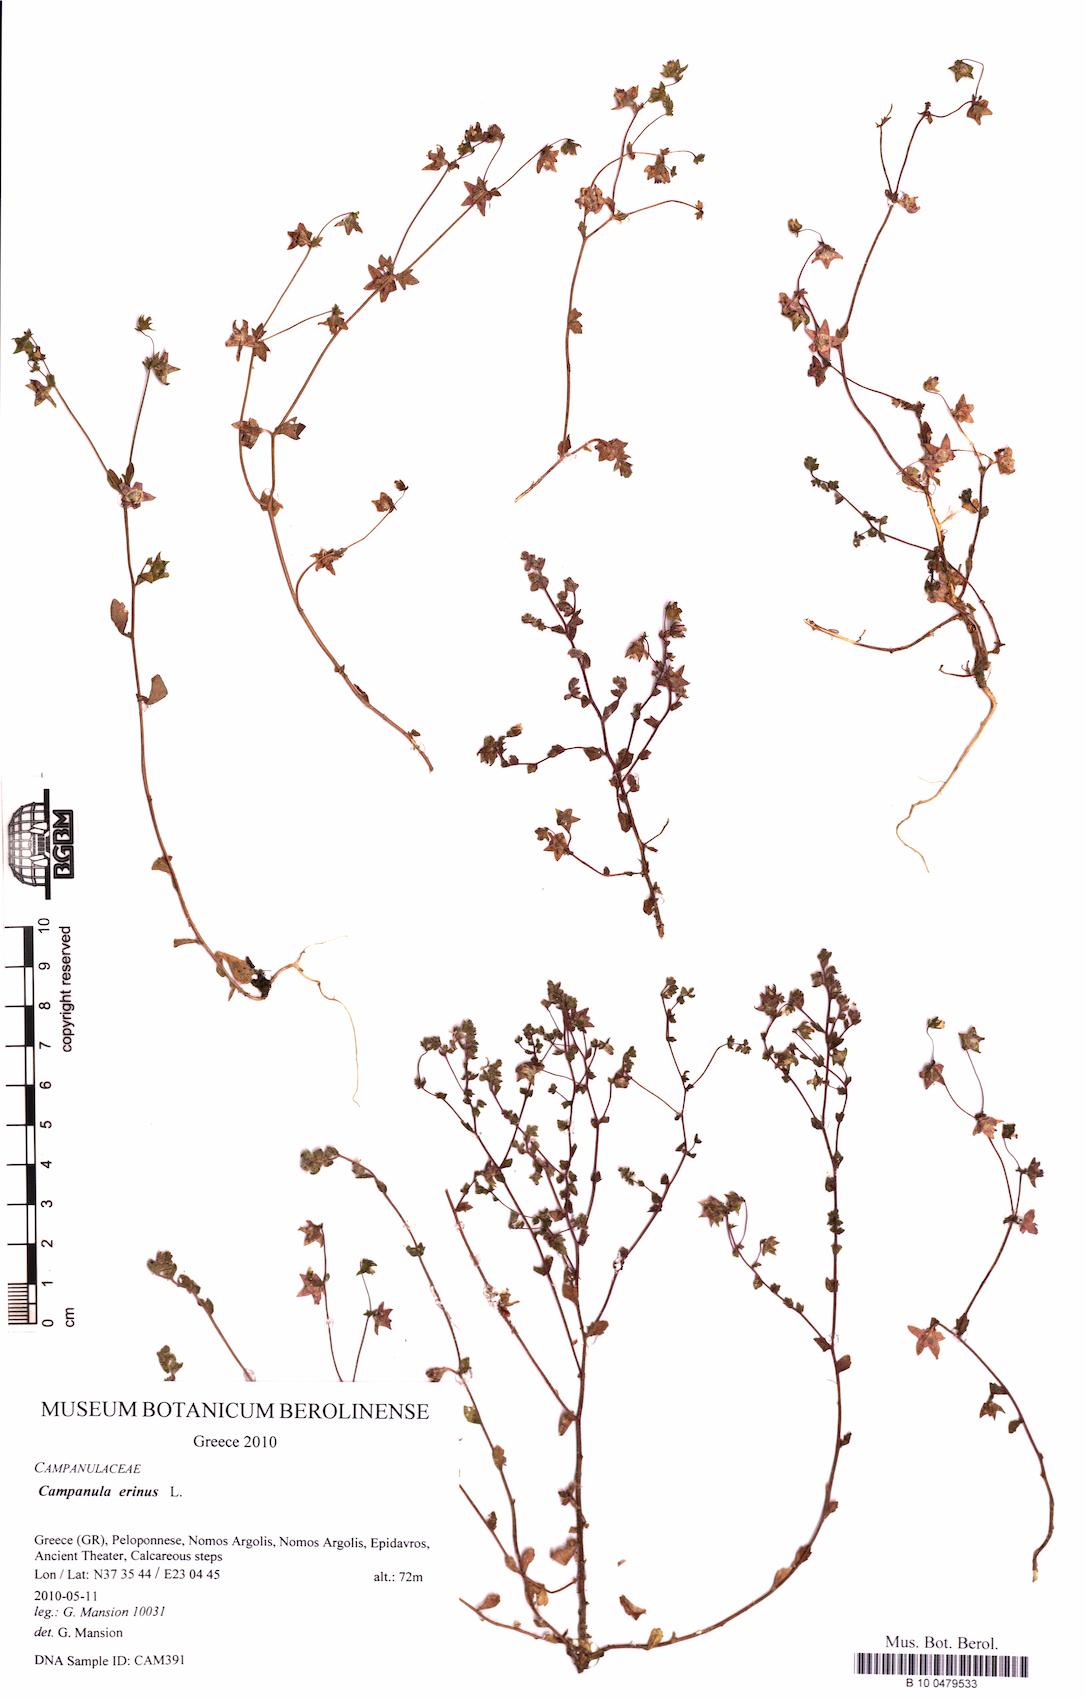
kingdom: Plantae
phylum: Tracheophyta
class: Magnoliopsida
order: Asterales
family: Campanulaceae
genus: Campanula
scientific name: Campanula erinus
